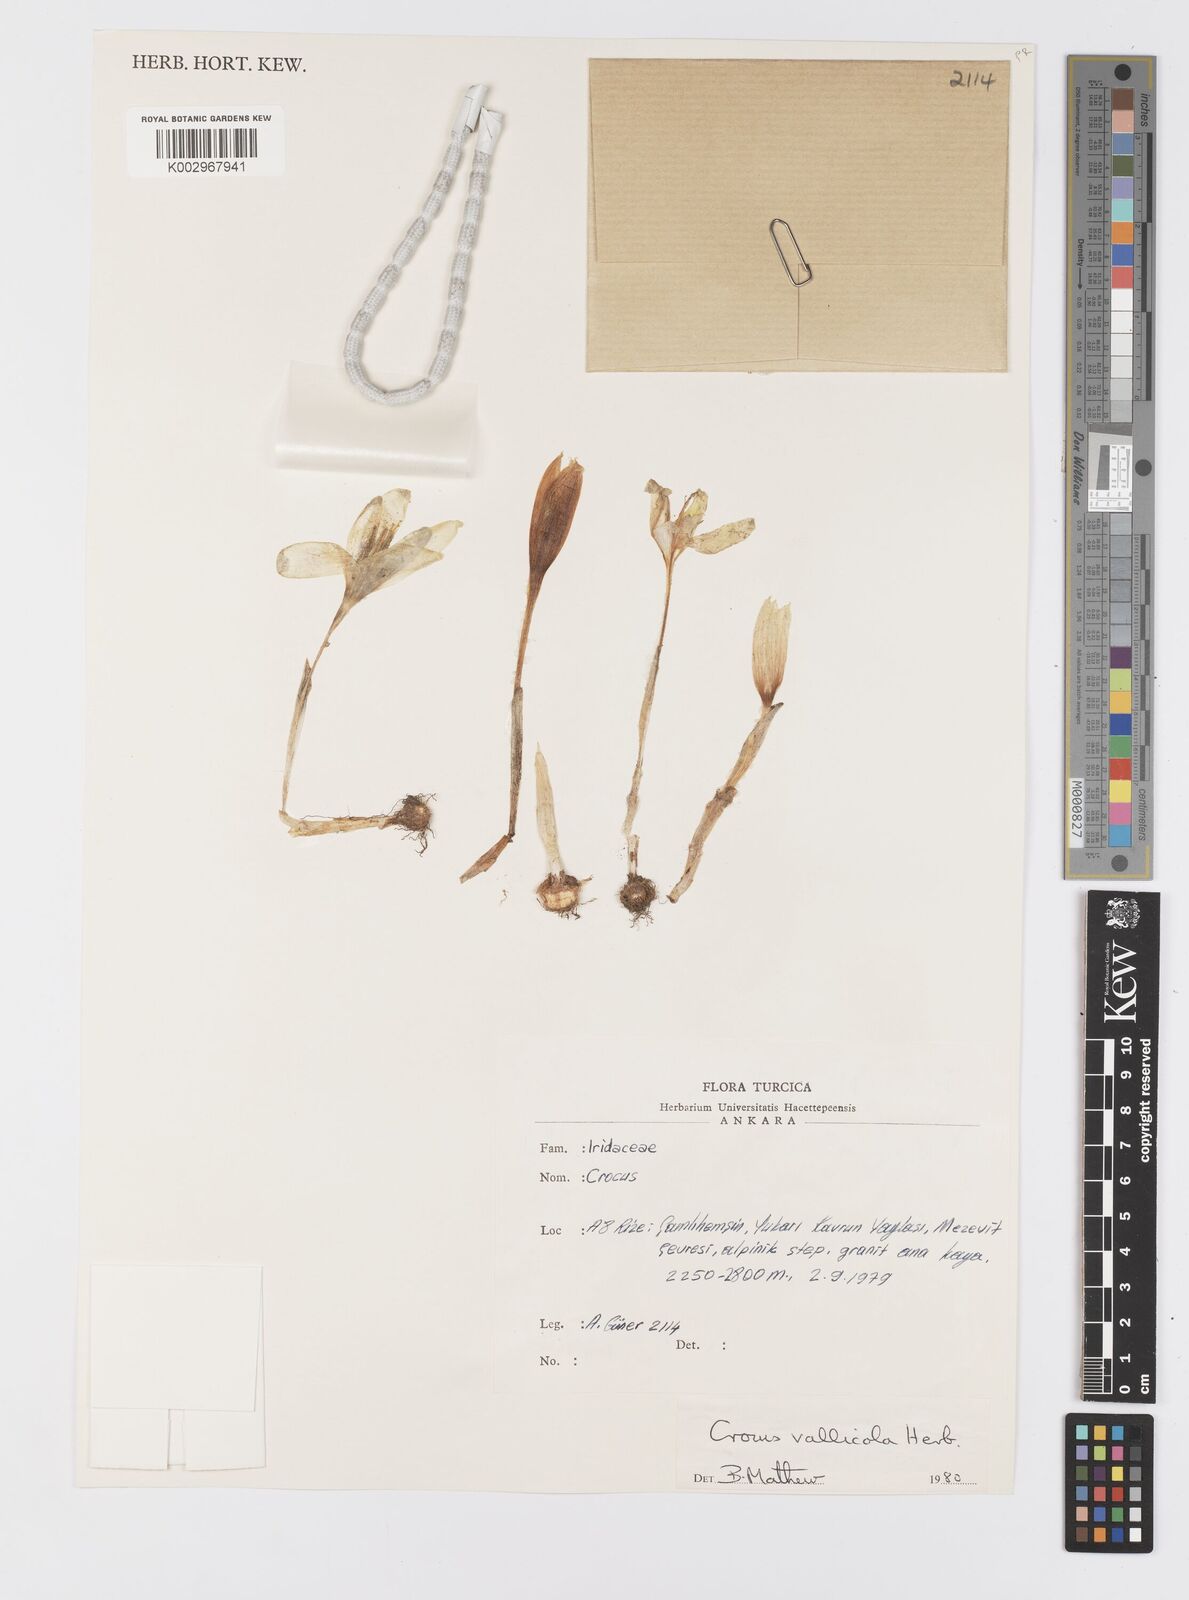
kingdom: Plantae
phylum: Tracheophyta
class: Liliopsida
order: Asparagales
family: Iridaceae
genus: Crocus
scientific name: Crocus vallicola
